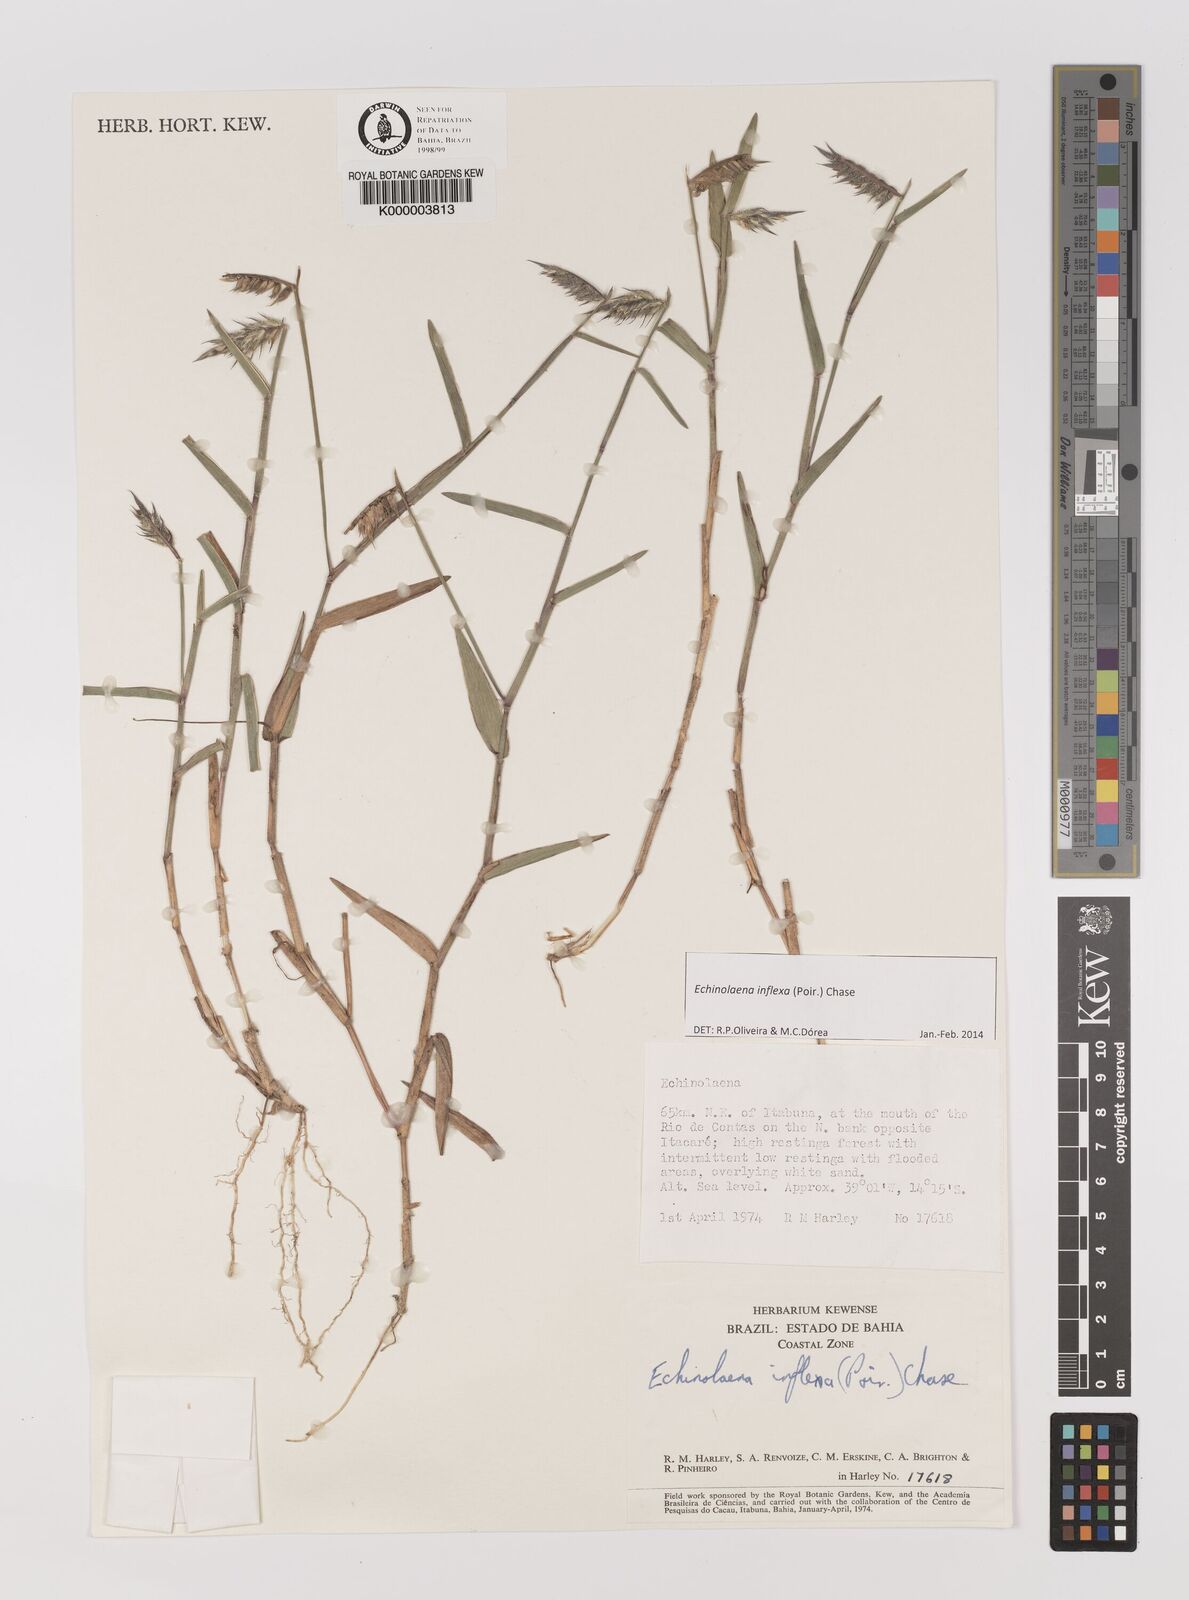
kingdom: Plantae
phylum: Tracheophyta
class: Liliopsida
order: Poales
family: Poaceae
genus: Echinolaena
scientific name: Echinolaena inflexa
